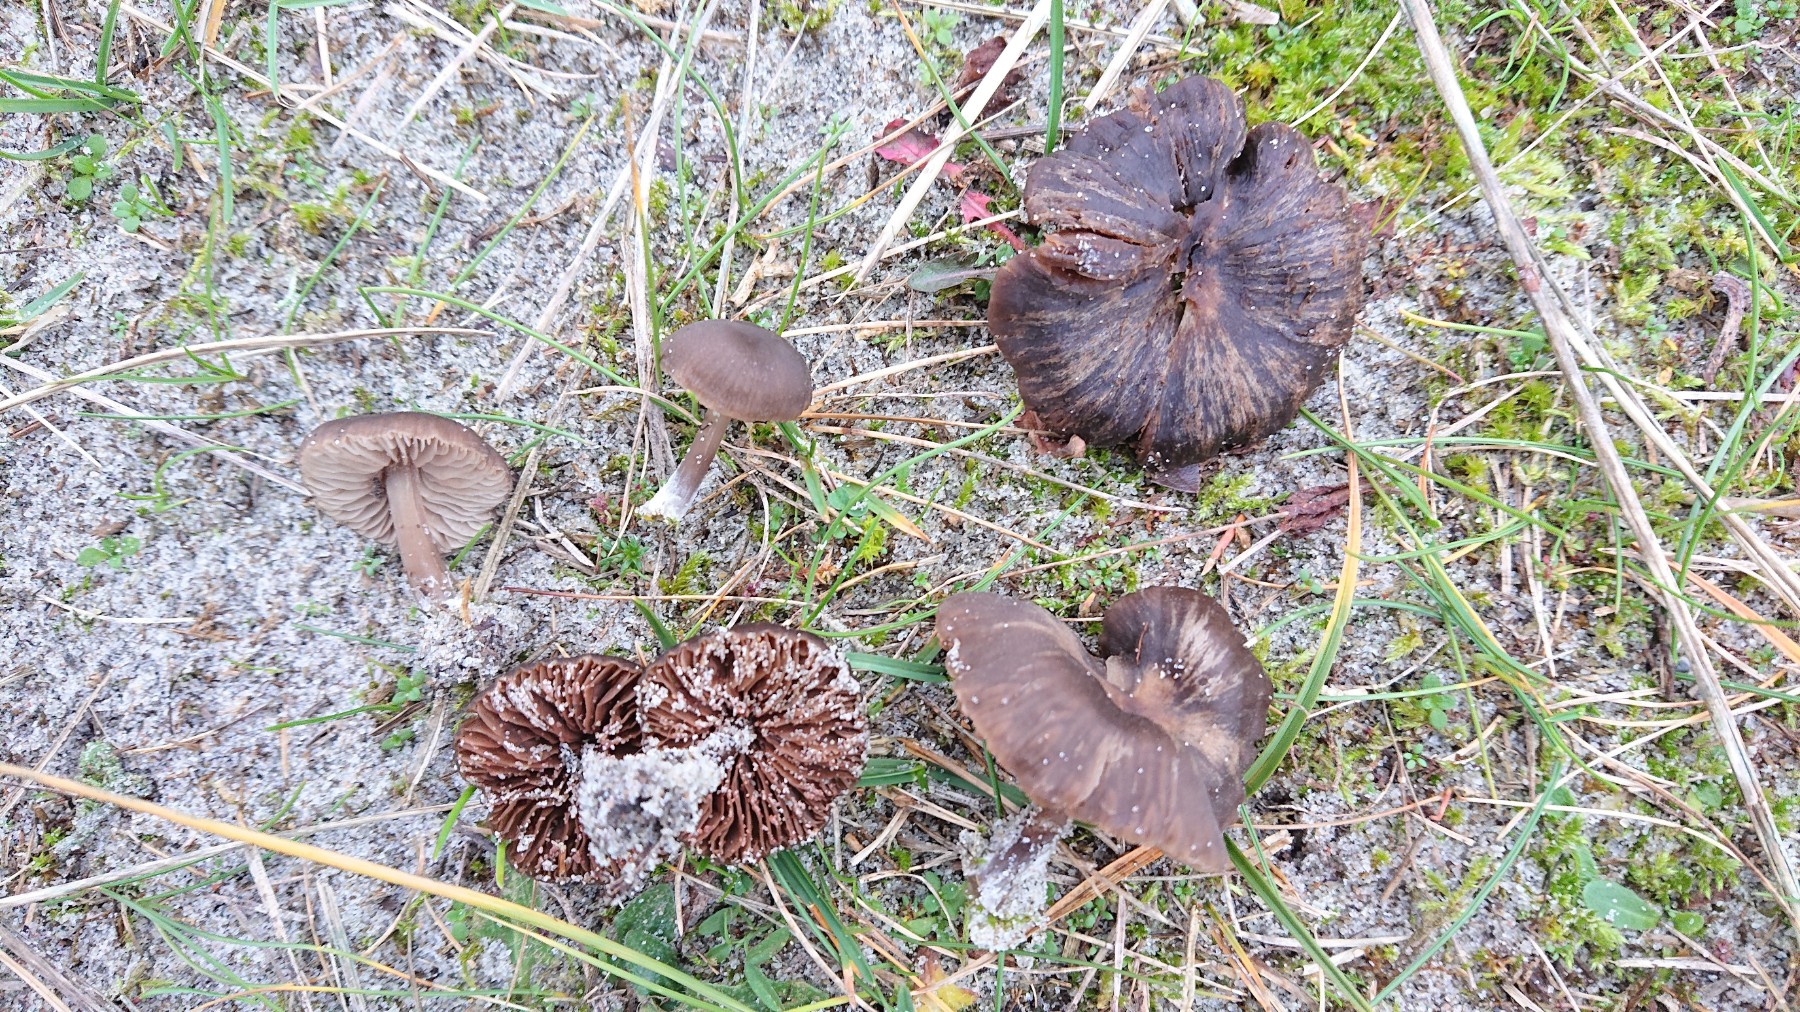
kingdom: Fungi
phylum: Basidiomycota
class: Agaricomycetes
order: Agaricales
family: Entolomataceae
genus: Entoloma
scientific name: Entoloma sericeum
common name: silkeglinsende rødblad
